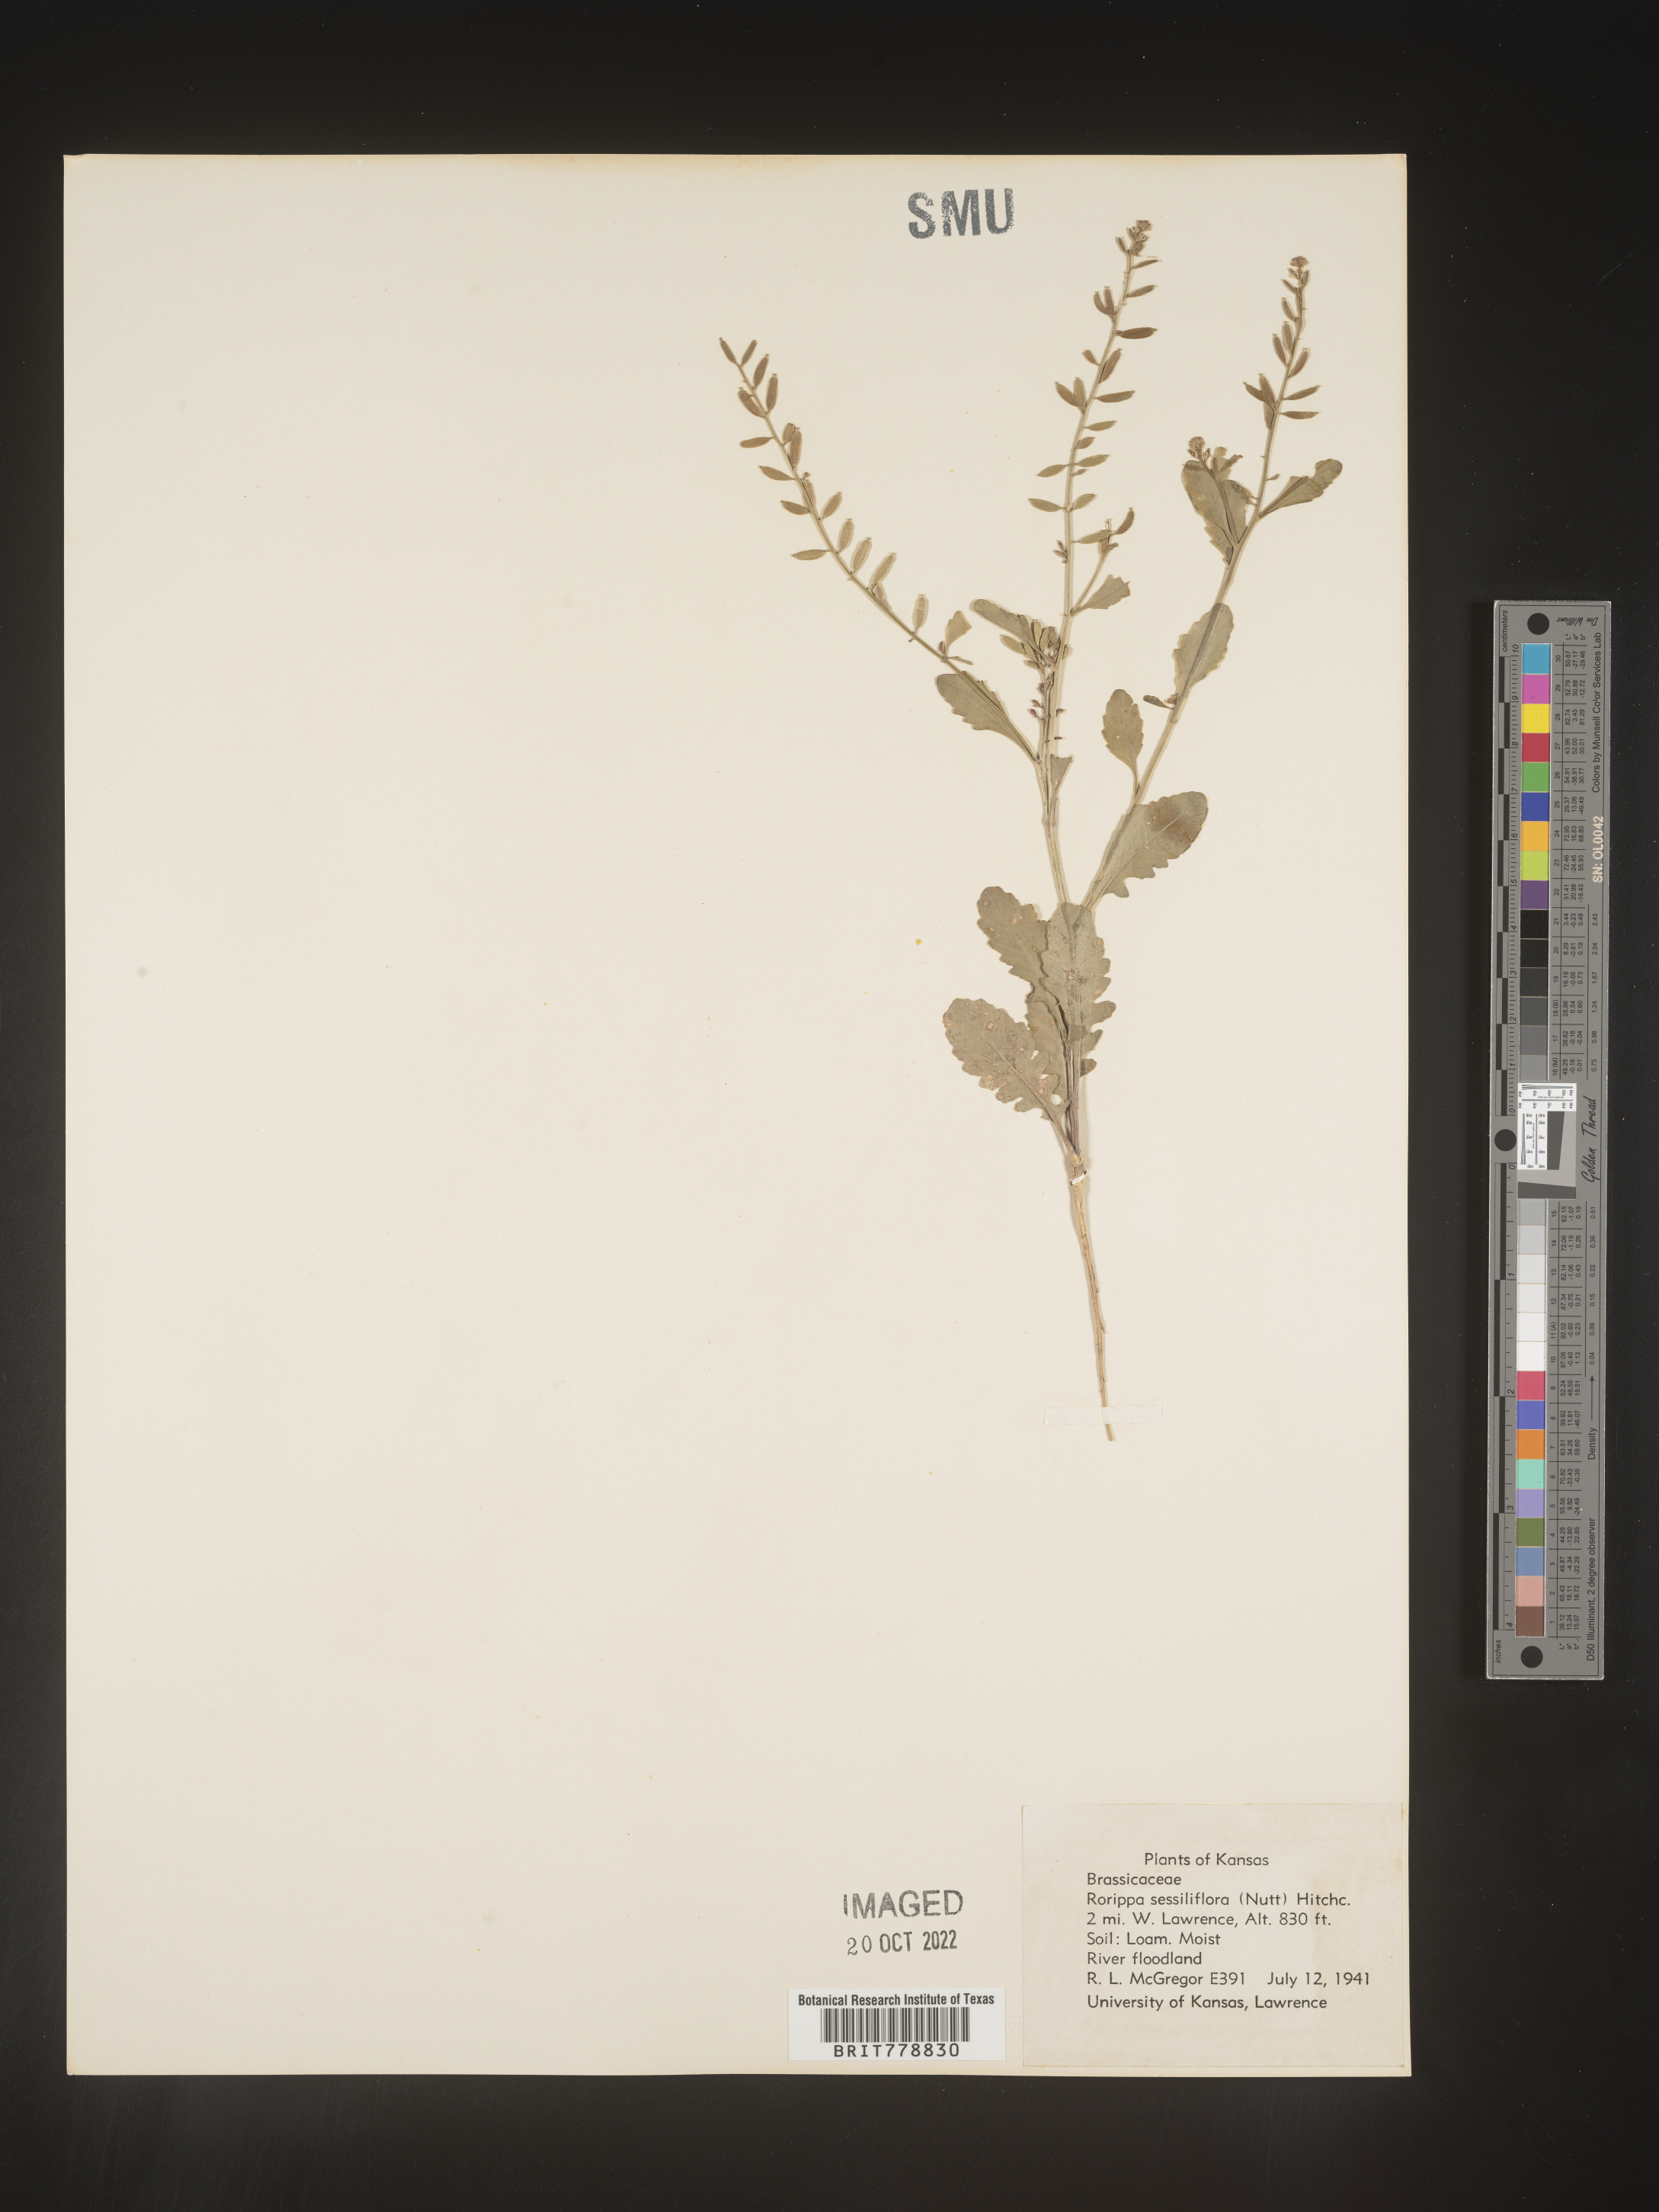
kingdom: Plantae
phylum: Tracheophyta
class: Magnoliopsida
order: Brassicales
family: Brassicaceae
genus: Rorippa
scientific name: Rorippa sessiliflora
